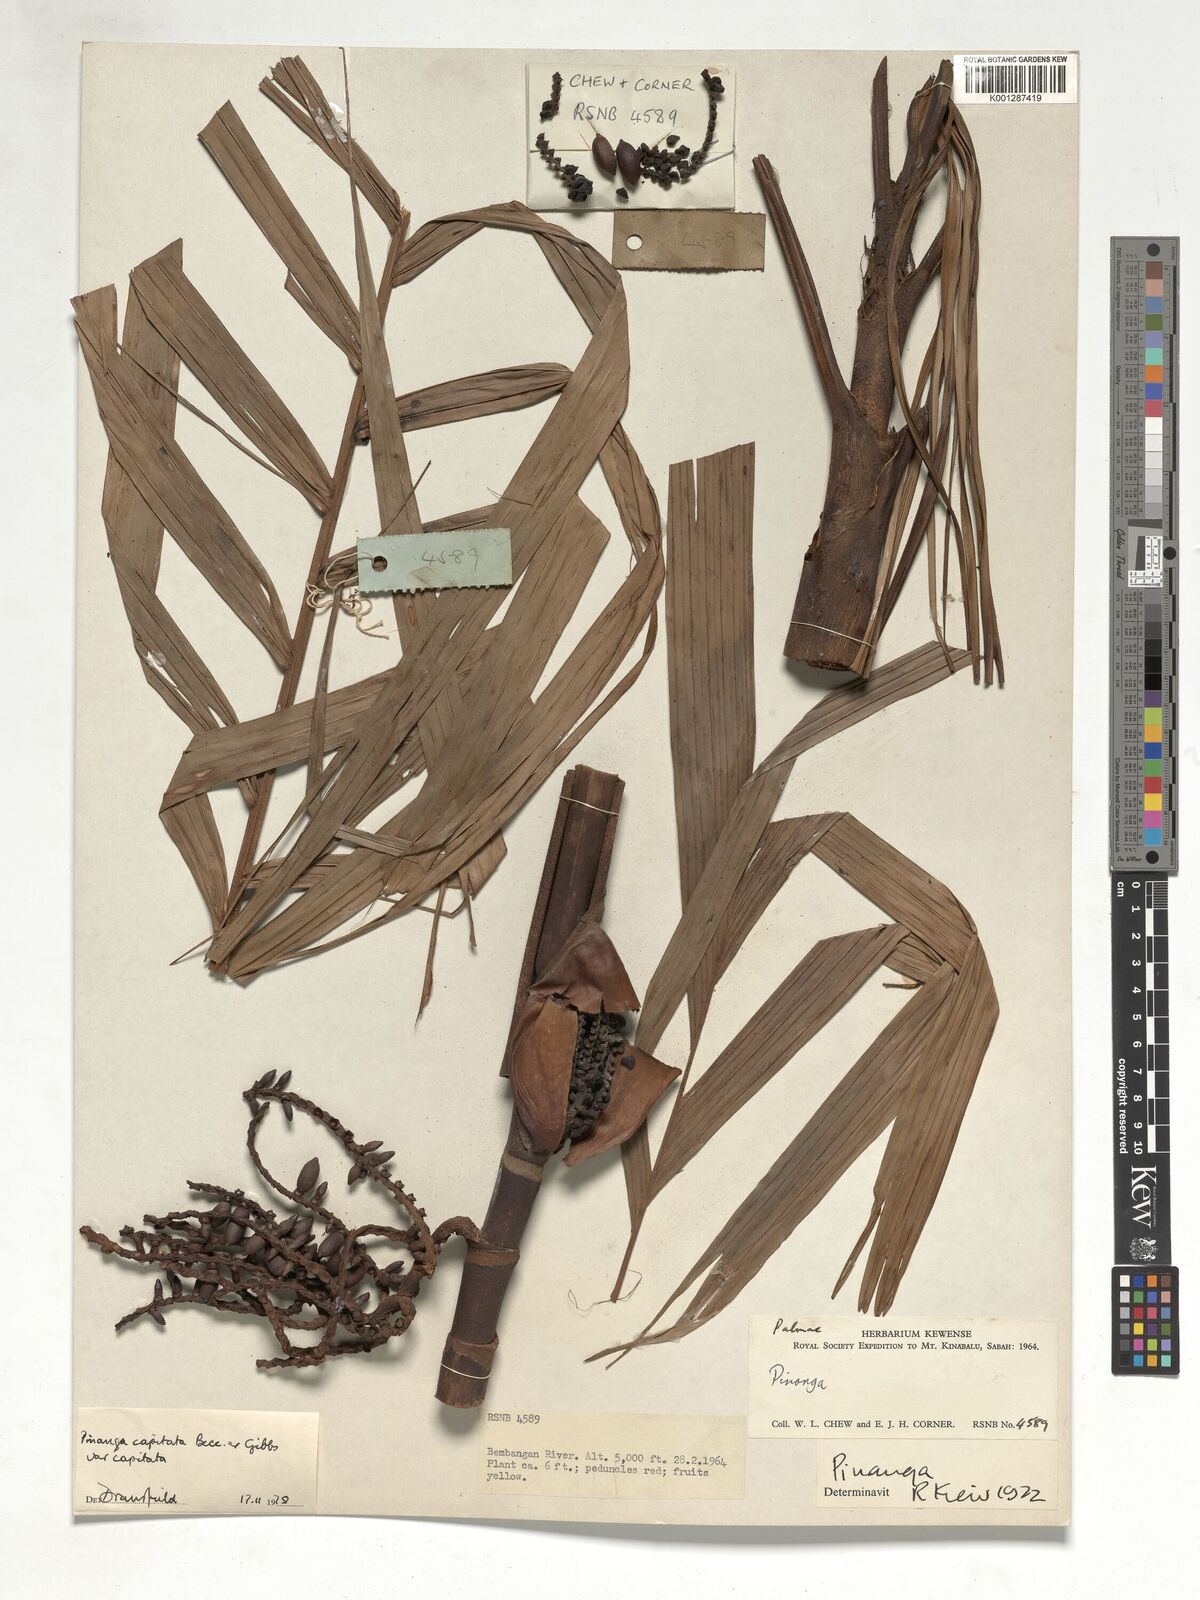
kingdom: Plantae
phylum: Tracheophyta
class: Liliopsida
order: Arecales
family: Arecaceae
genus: Pinanga
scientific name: Pinanga capitata
